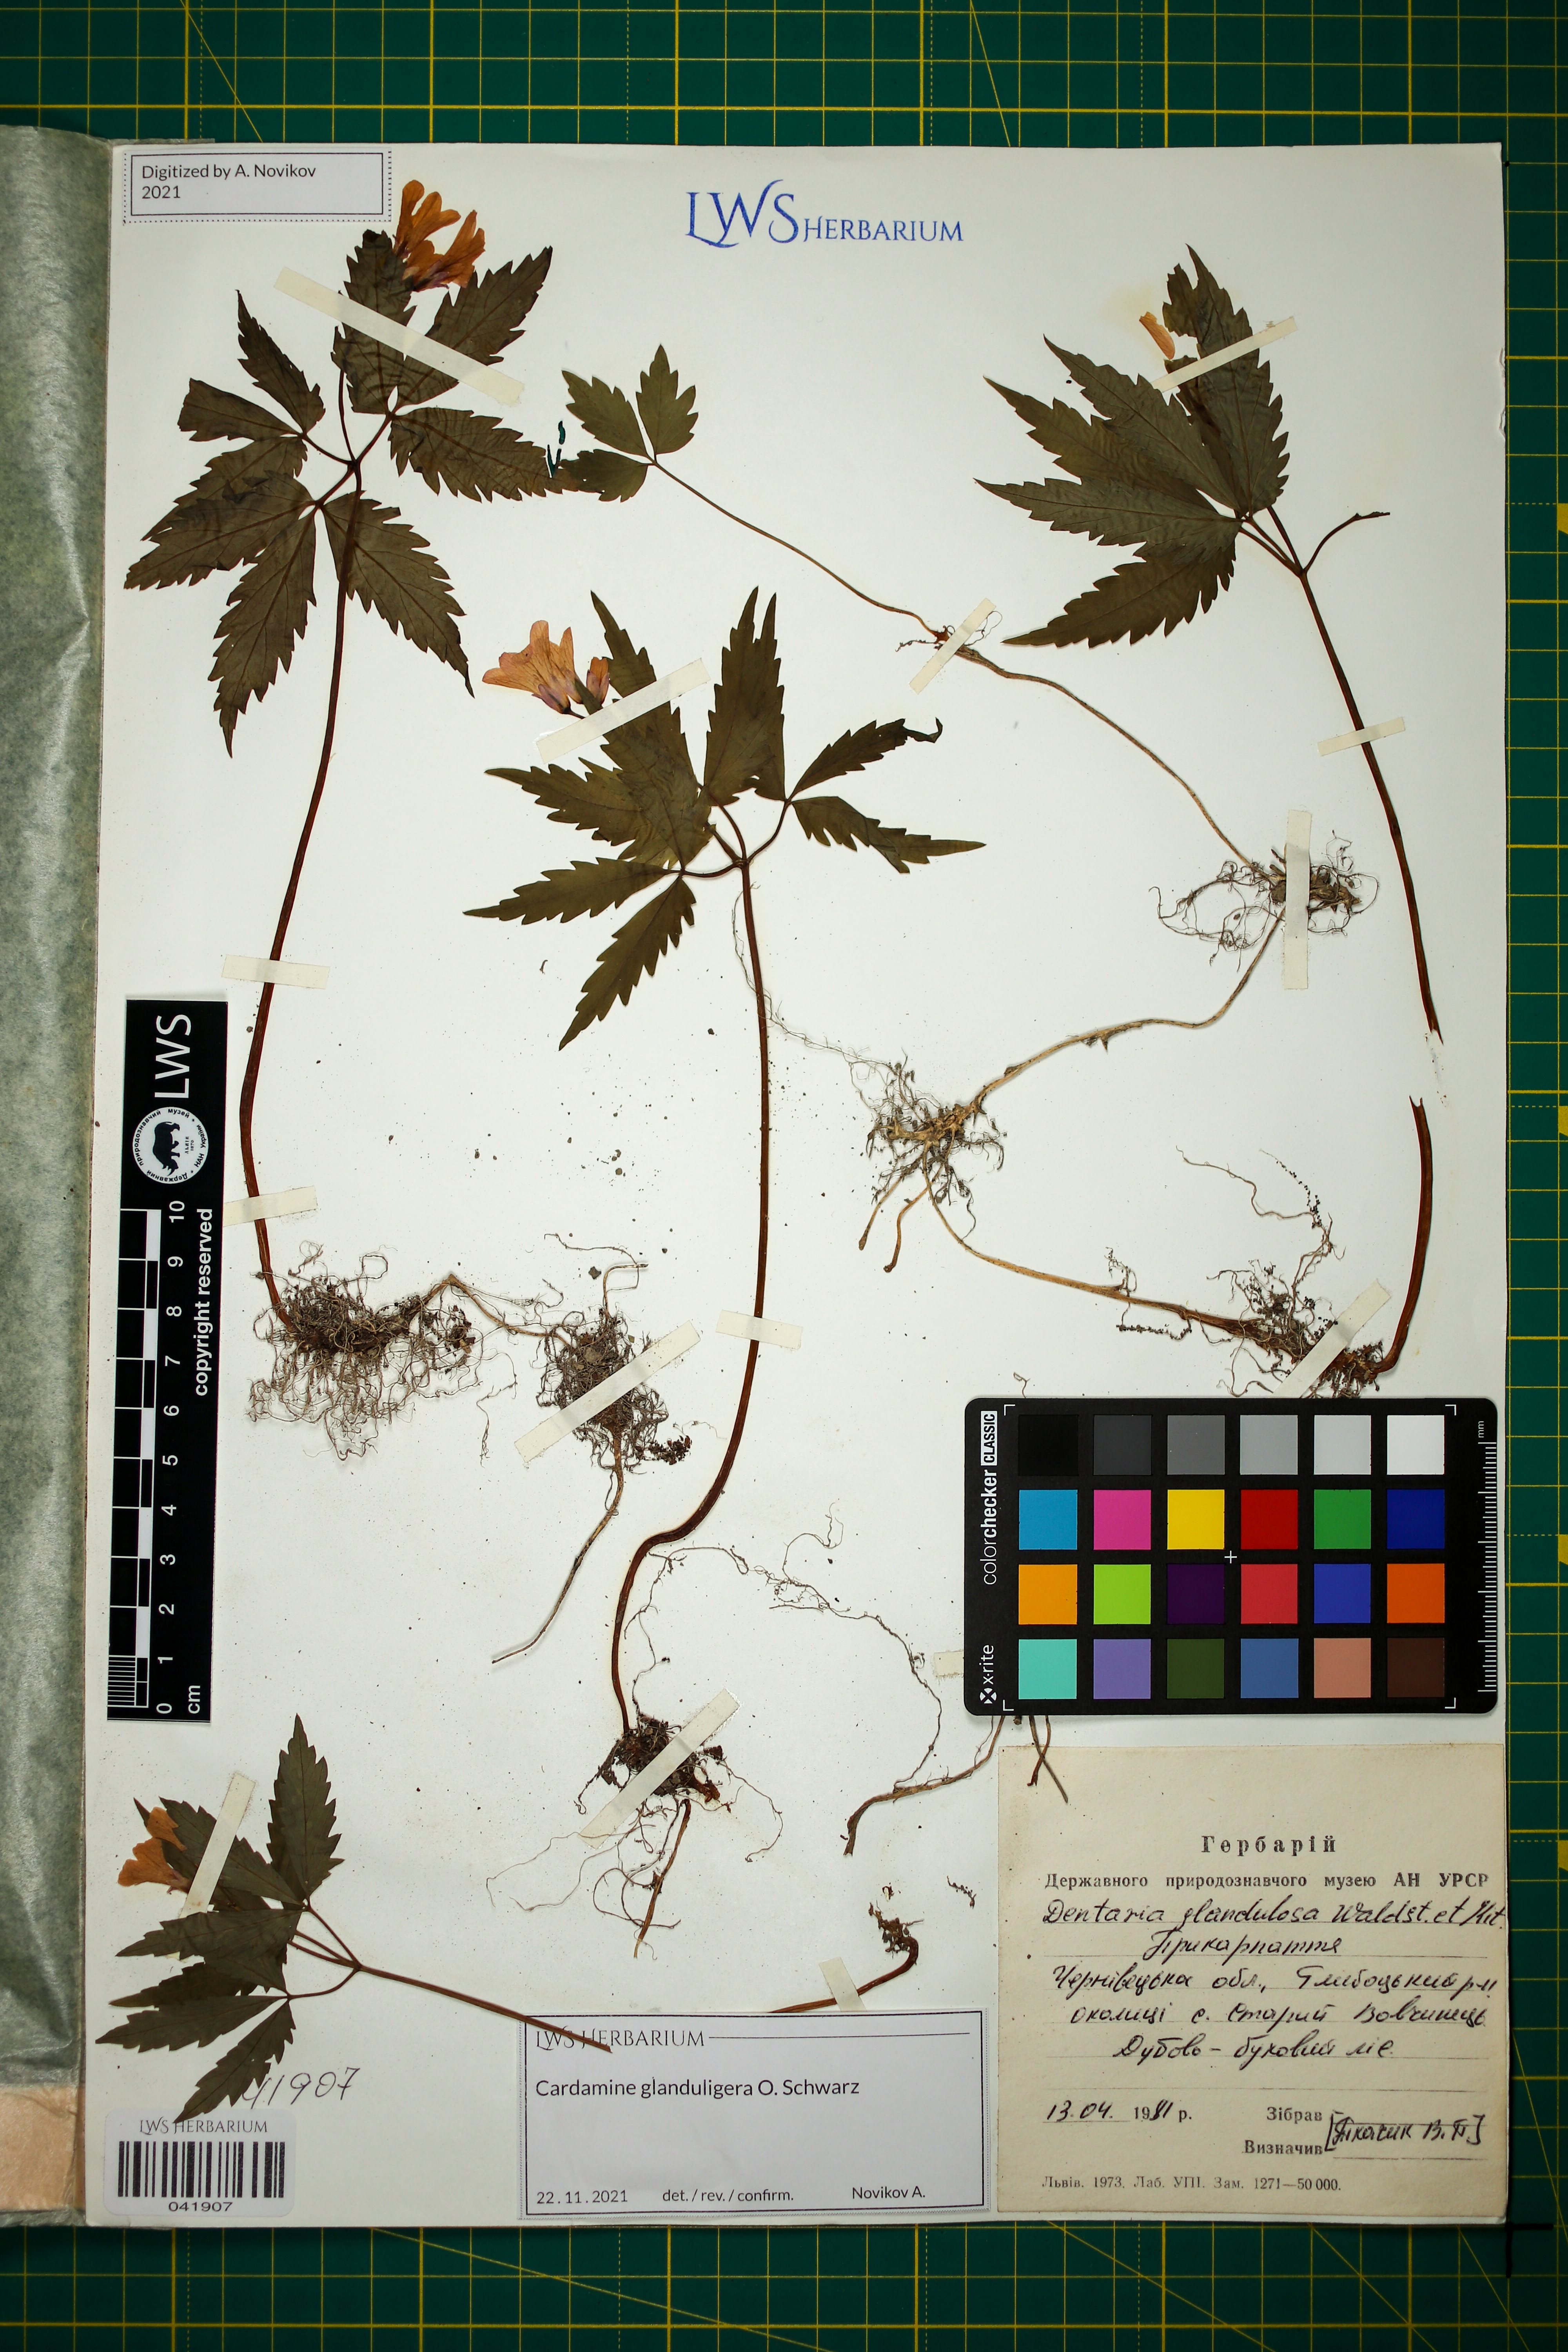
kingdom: Plantae
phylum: Tracheophyta
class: Magnoliopsida
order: Brassicales
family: Brassicaceae
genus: Cardamine
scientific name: Cardamine glanduligera
